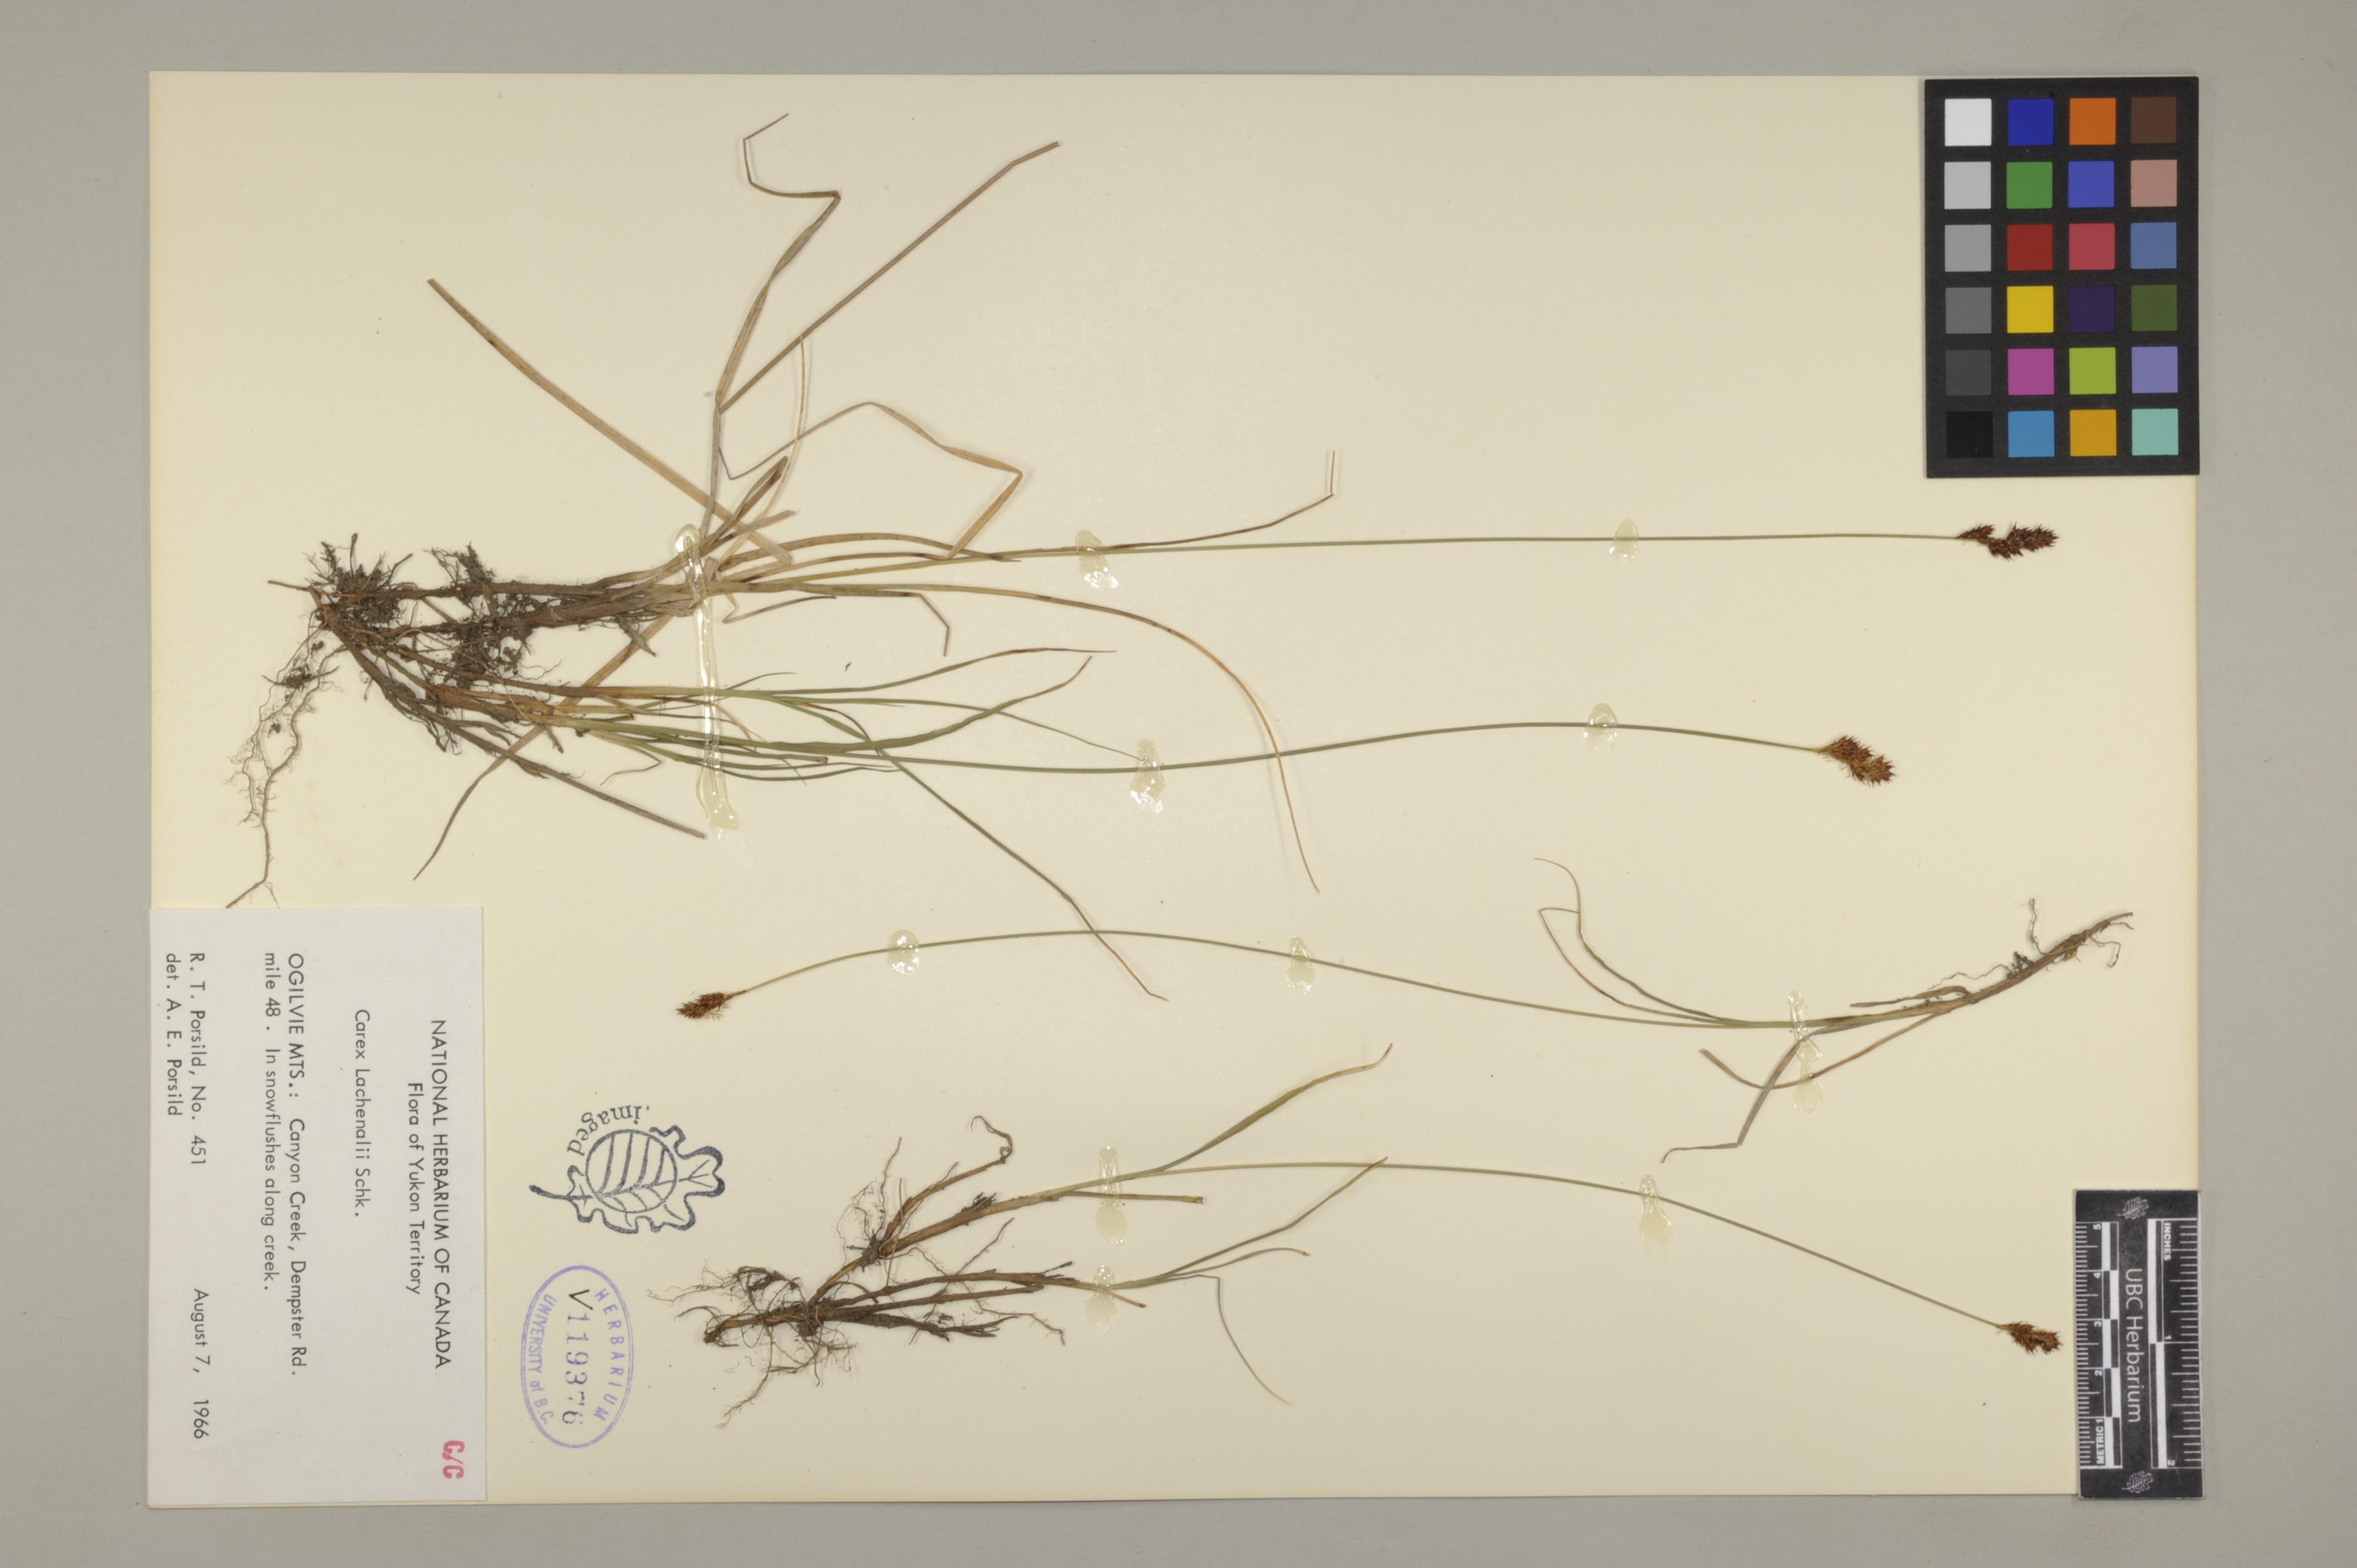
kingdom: Plantae
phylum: Tracheophyta
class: Liliopsida
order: Poales
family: Cyperaceae
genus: Carex
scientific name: Carex lachenalii
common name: Hare's-foot sedge
